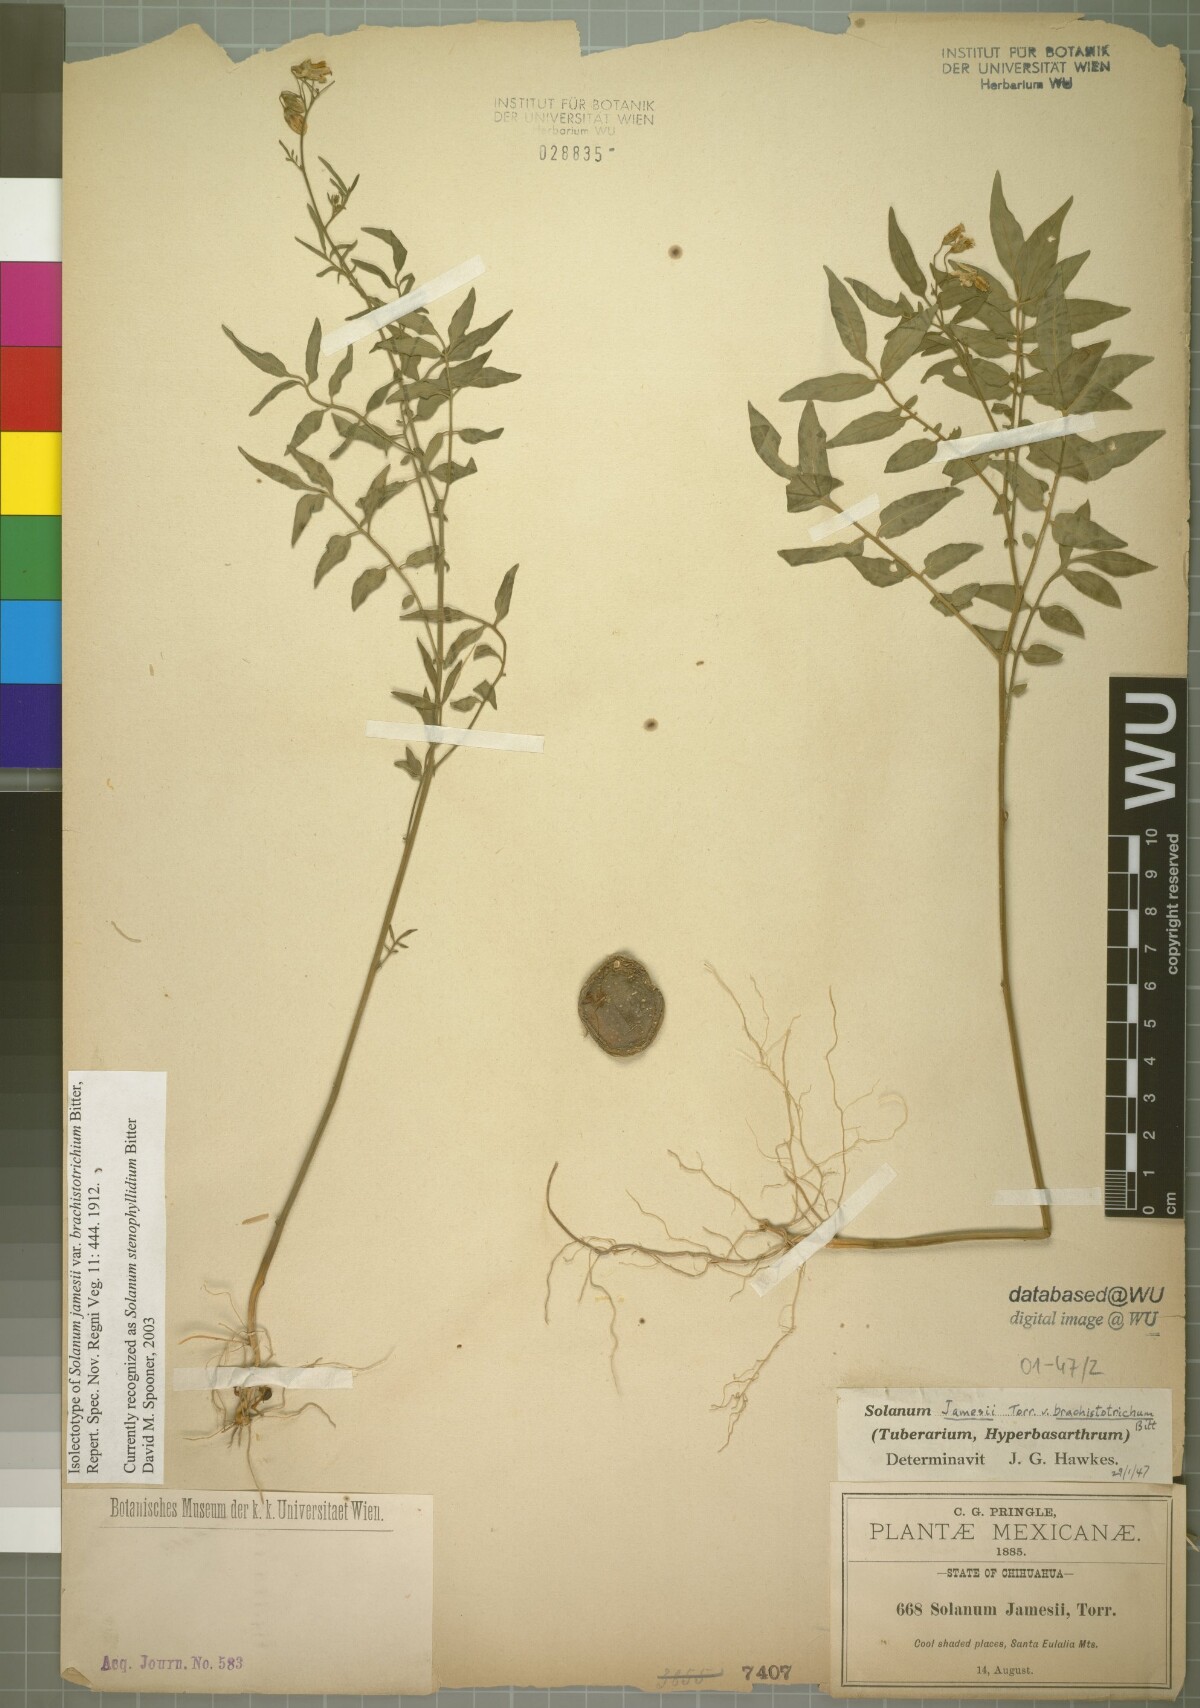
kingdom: Plantae
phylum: Tracheophyta
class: Magnoliopsida
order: Solanales
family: Solanaceae
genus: Solanum
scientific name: Solanum stenophyllidium
